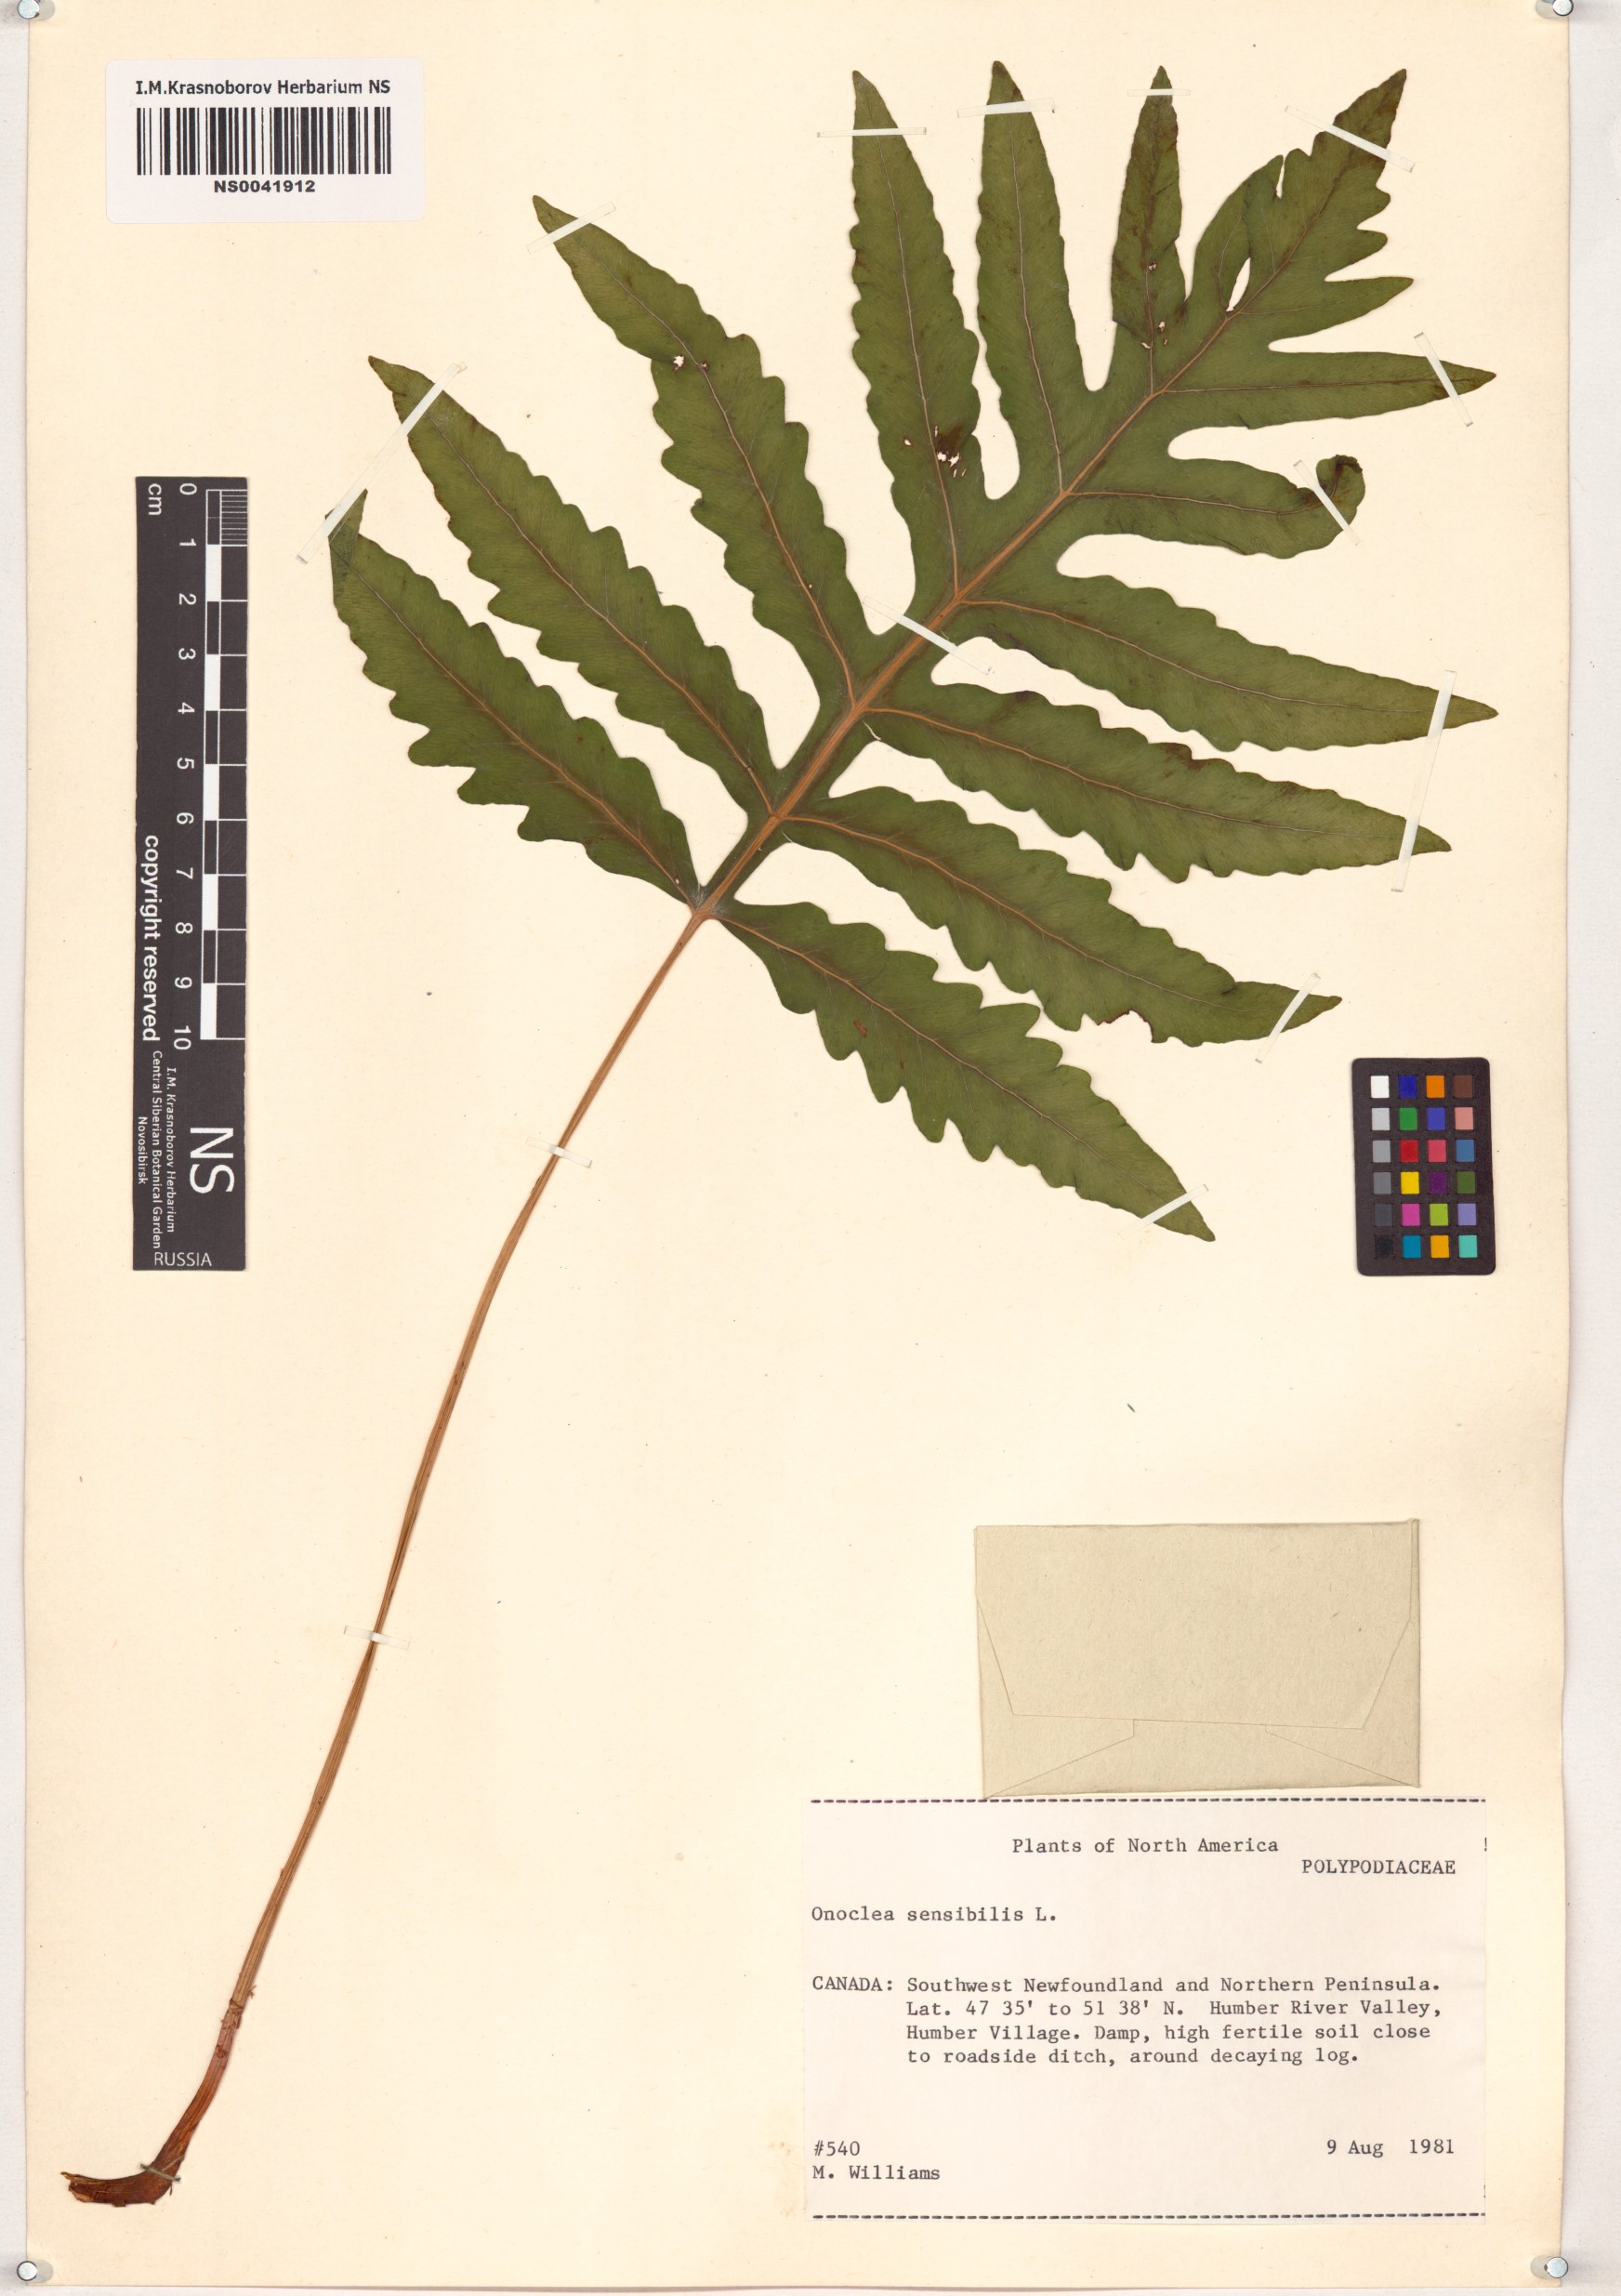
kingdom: Plantae
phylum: Tracheophyta
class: Polypodiopsida
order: Polypodiales
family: Onocleaceae
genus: Onoclea
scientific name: Onoclea sensibilis
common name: Sensitive fern
